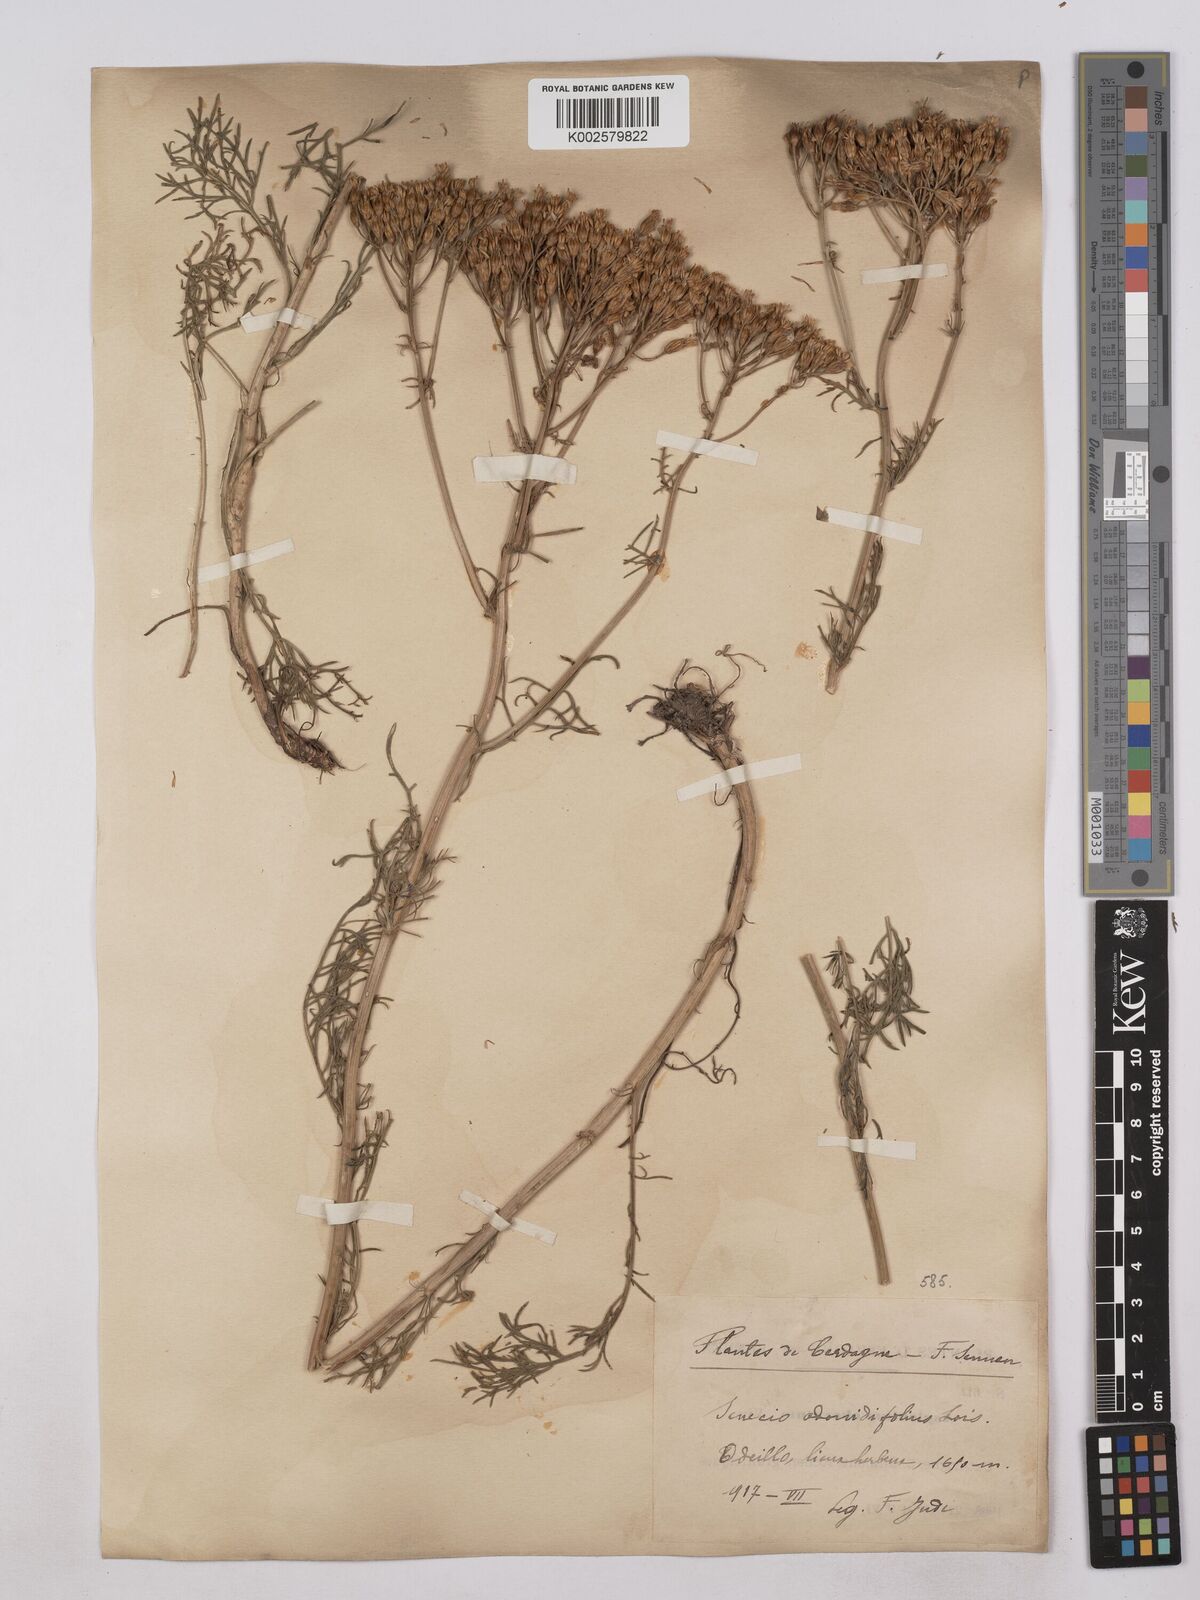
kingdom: Plantae
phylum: Tracheophyta
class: Magnoliopsida
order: Asterales
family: Asteraceae
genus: Jacobaea
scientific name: Jacobaea adonidifolia
